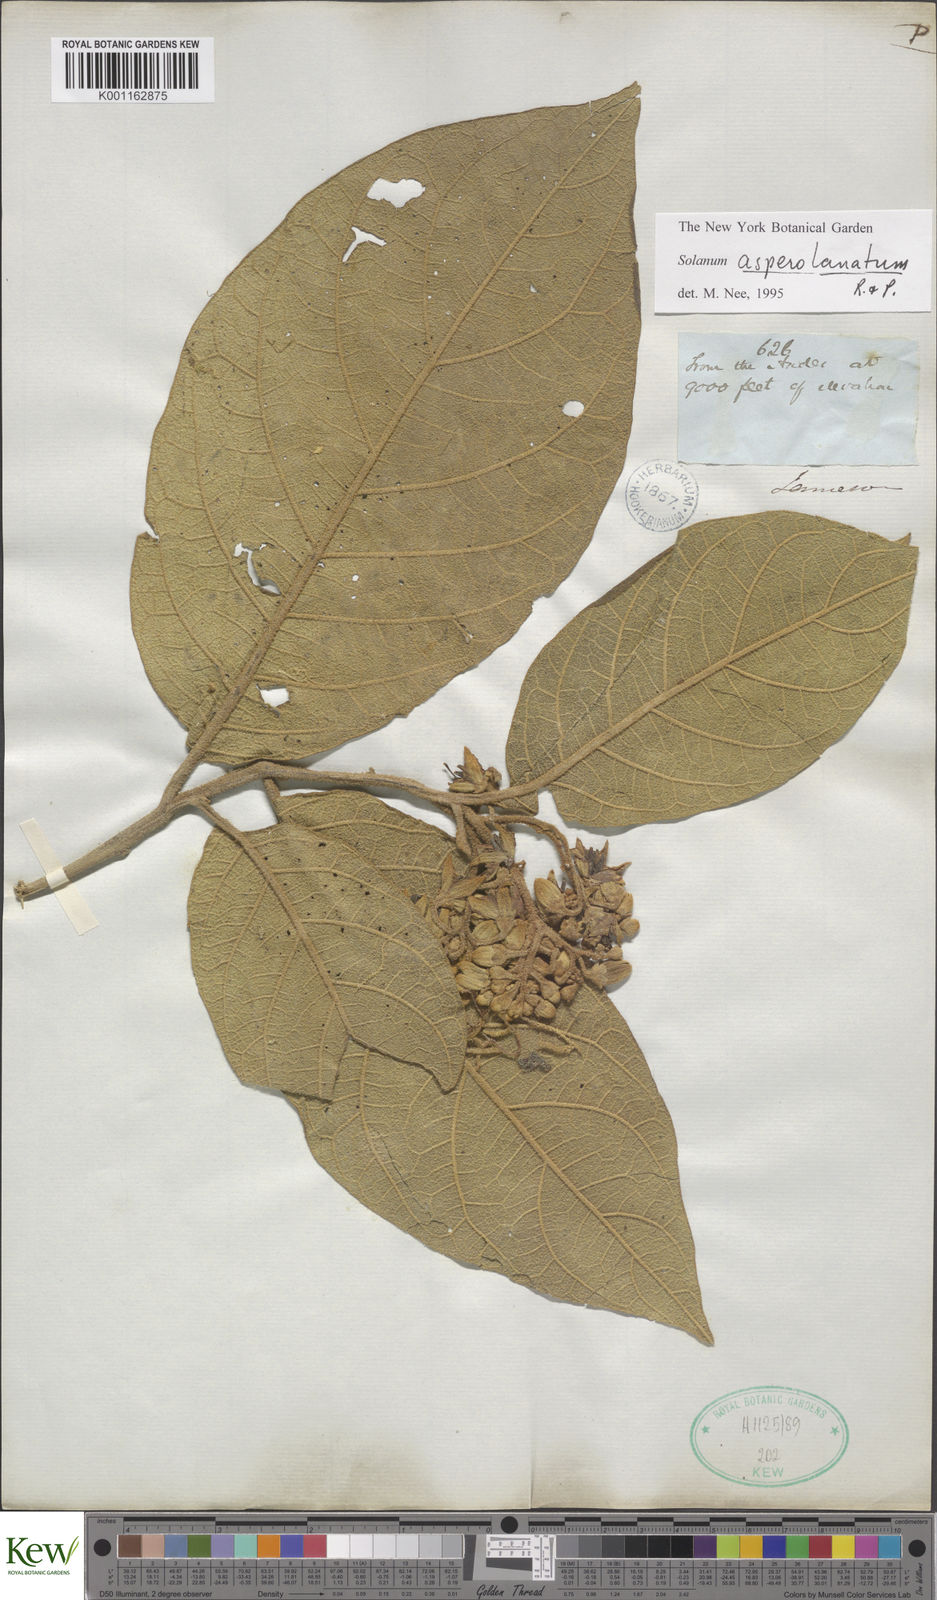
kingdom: Plantae
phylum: Tracheophyta
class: Magnoliopsida
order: Solanales
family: Solanaceae
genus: Solanum
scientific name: Solanum asperolanatum
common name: Devil's-fig
